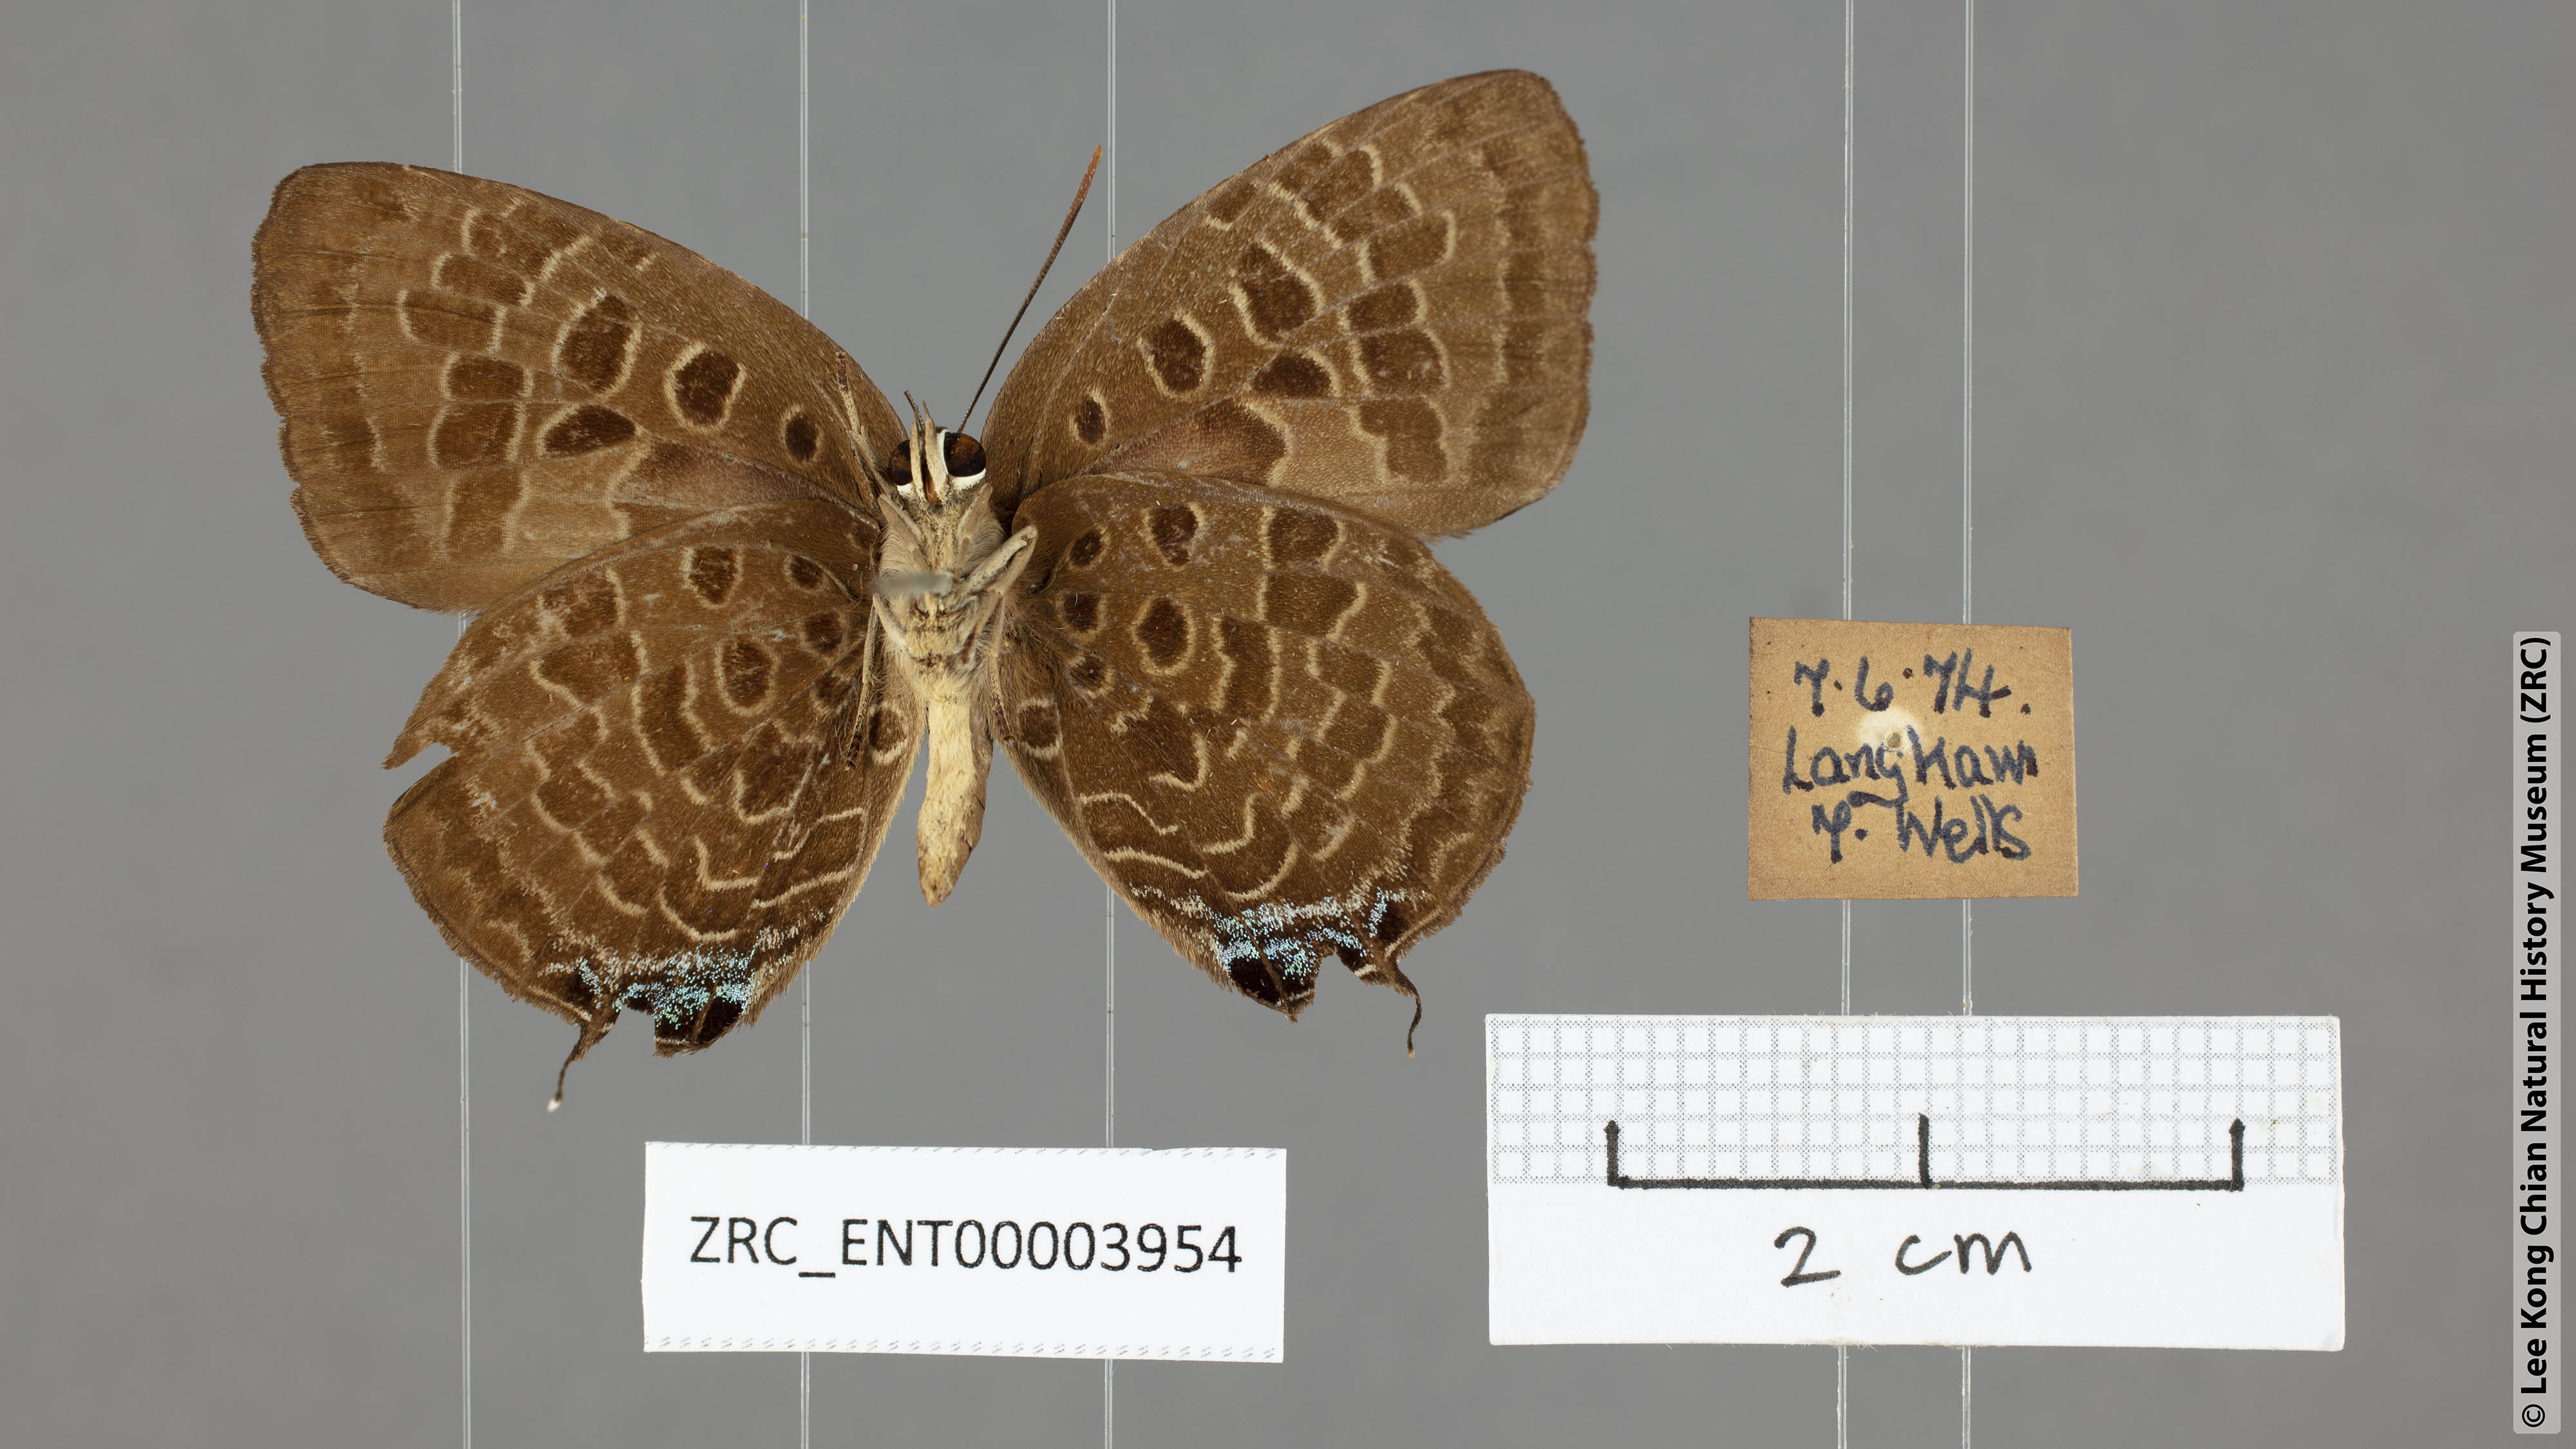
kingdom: Animalia
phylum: Arthropoda
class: Insecta
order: Lepidoptera
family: Lycaenidae
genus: Arhopala
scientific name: Arhopala horsfieldi
